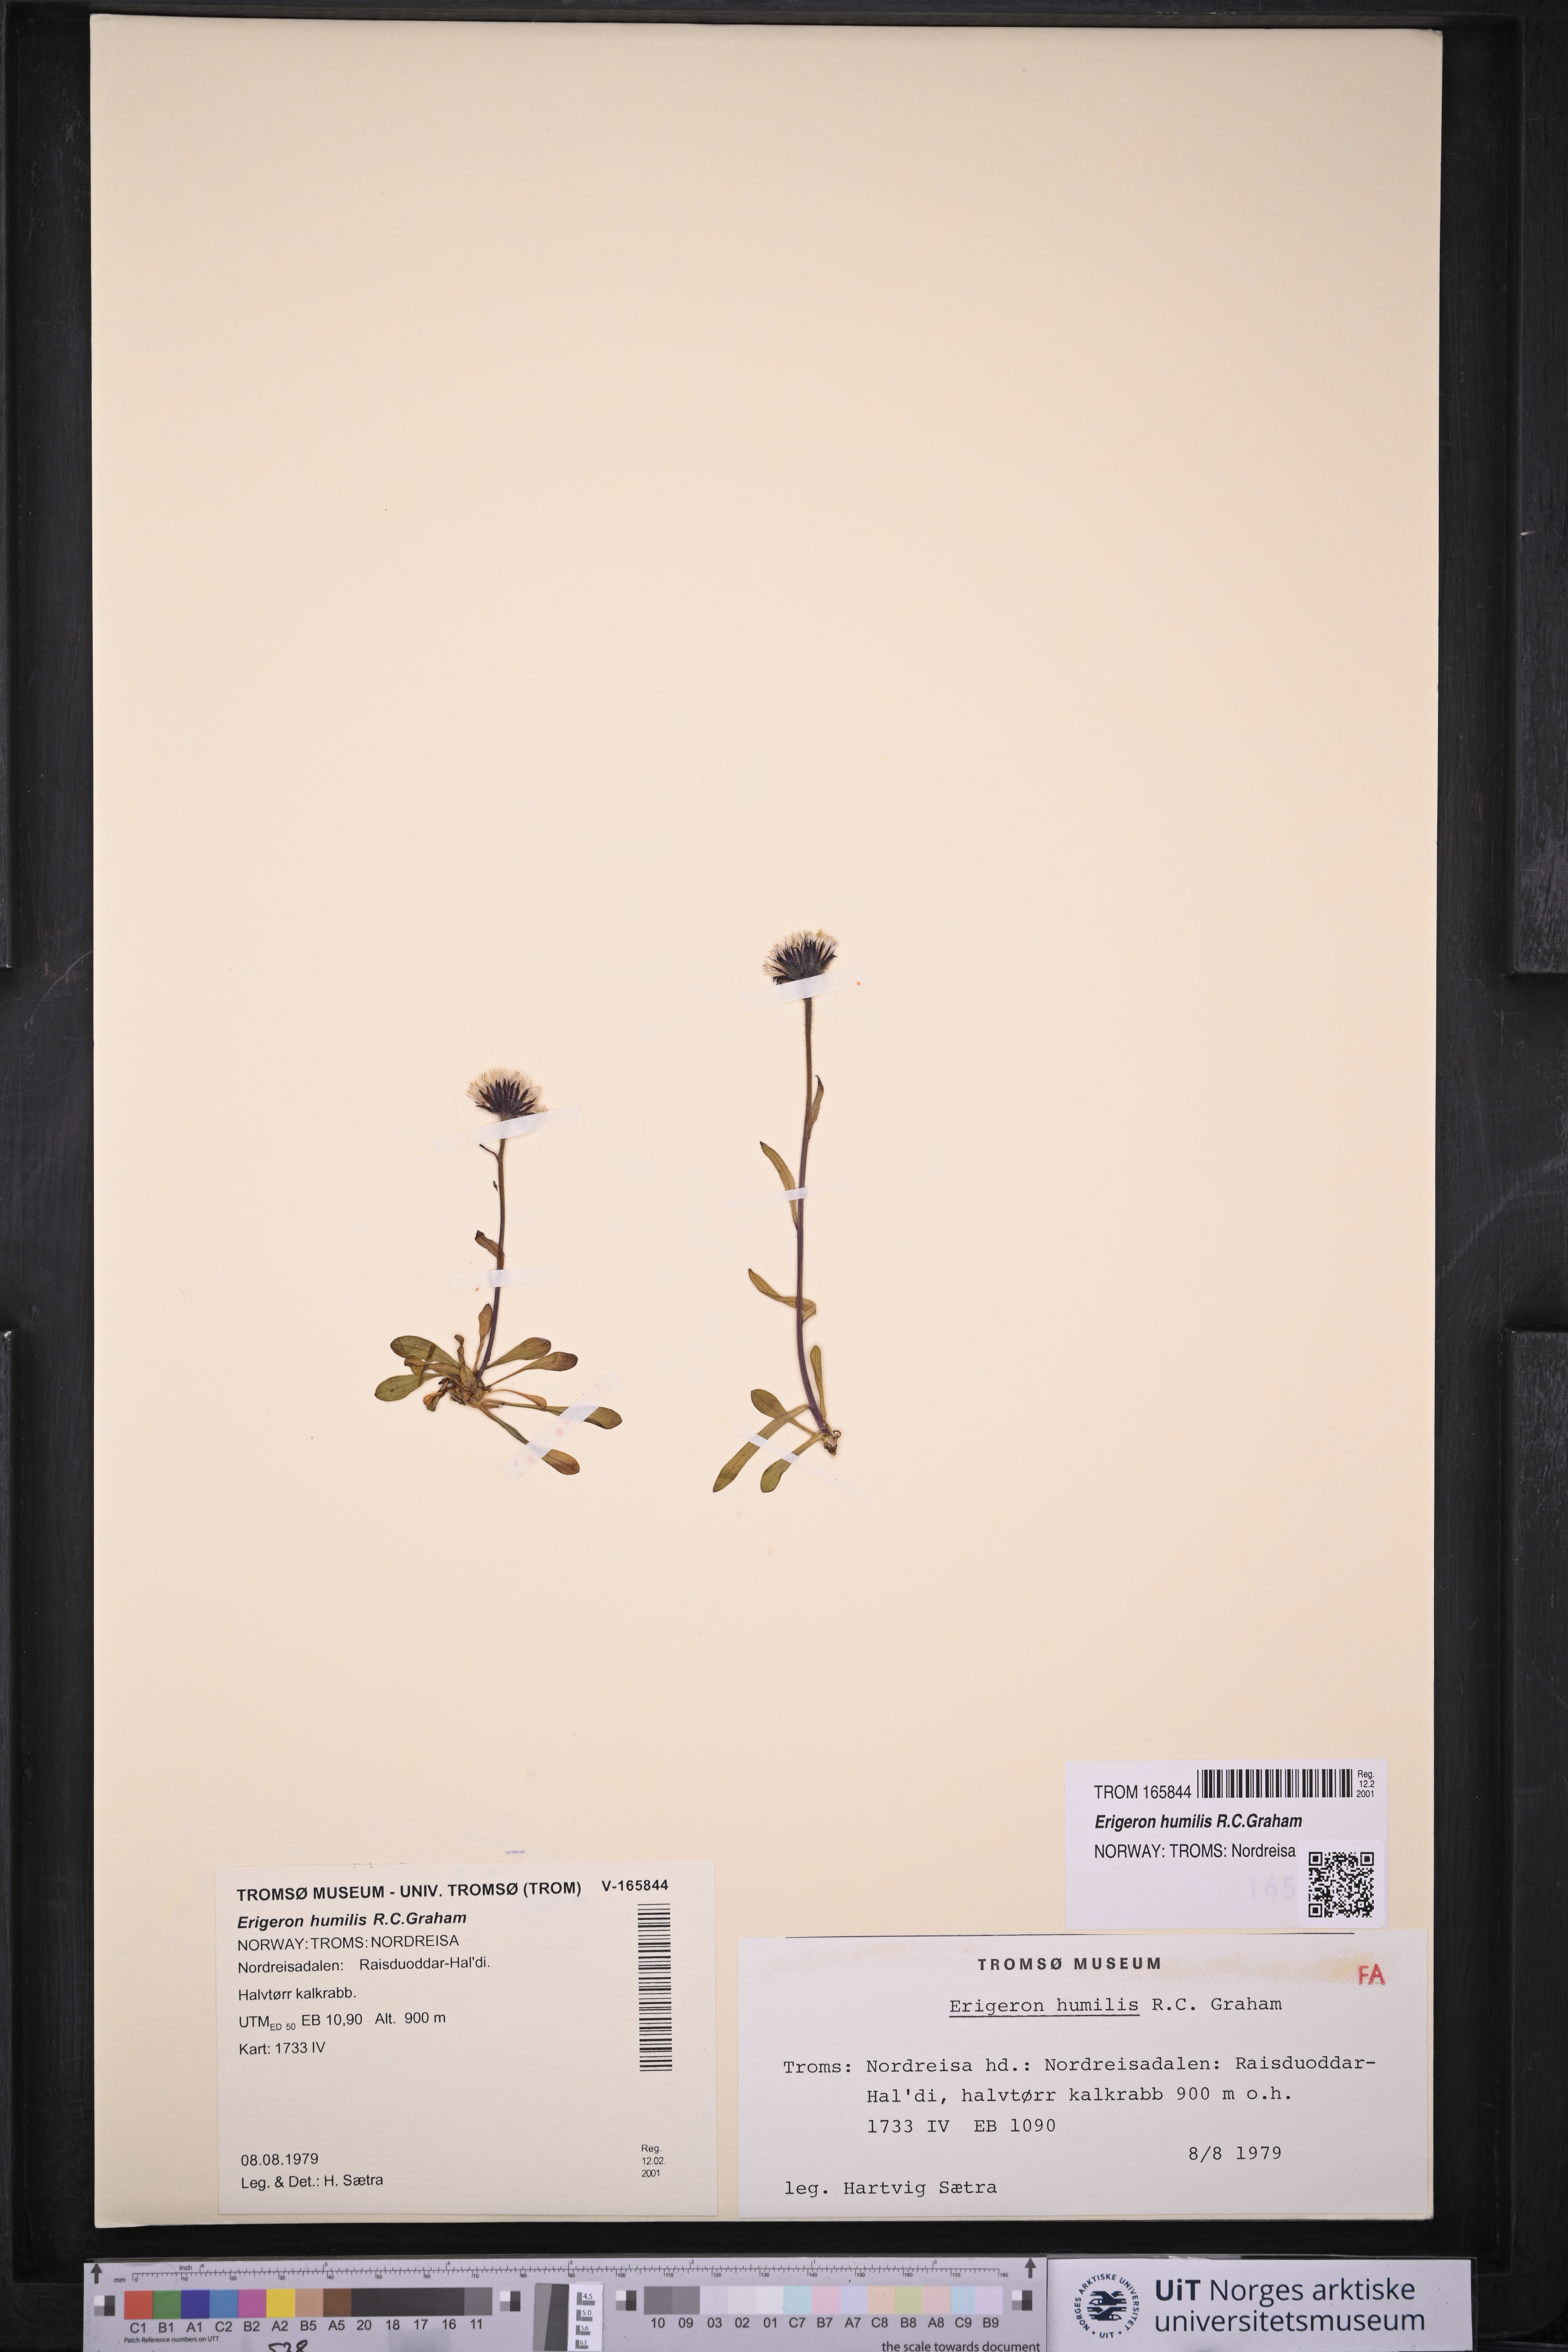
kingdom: Plantae
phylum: Tracheophyta
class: Magnoliopsida
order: Asterales
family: Asteraceae
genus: Erigeron
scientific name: Erigeron humilis
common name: Arctic-alpine fleabane
